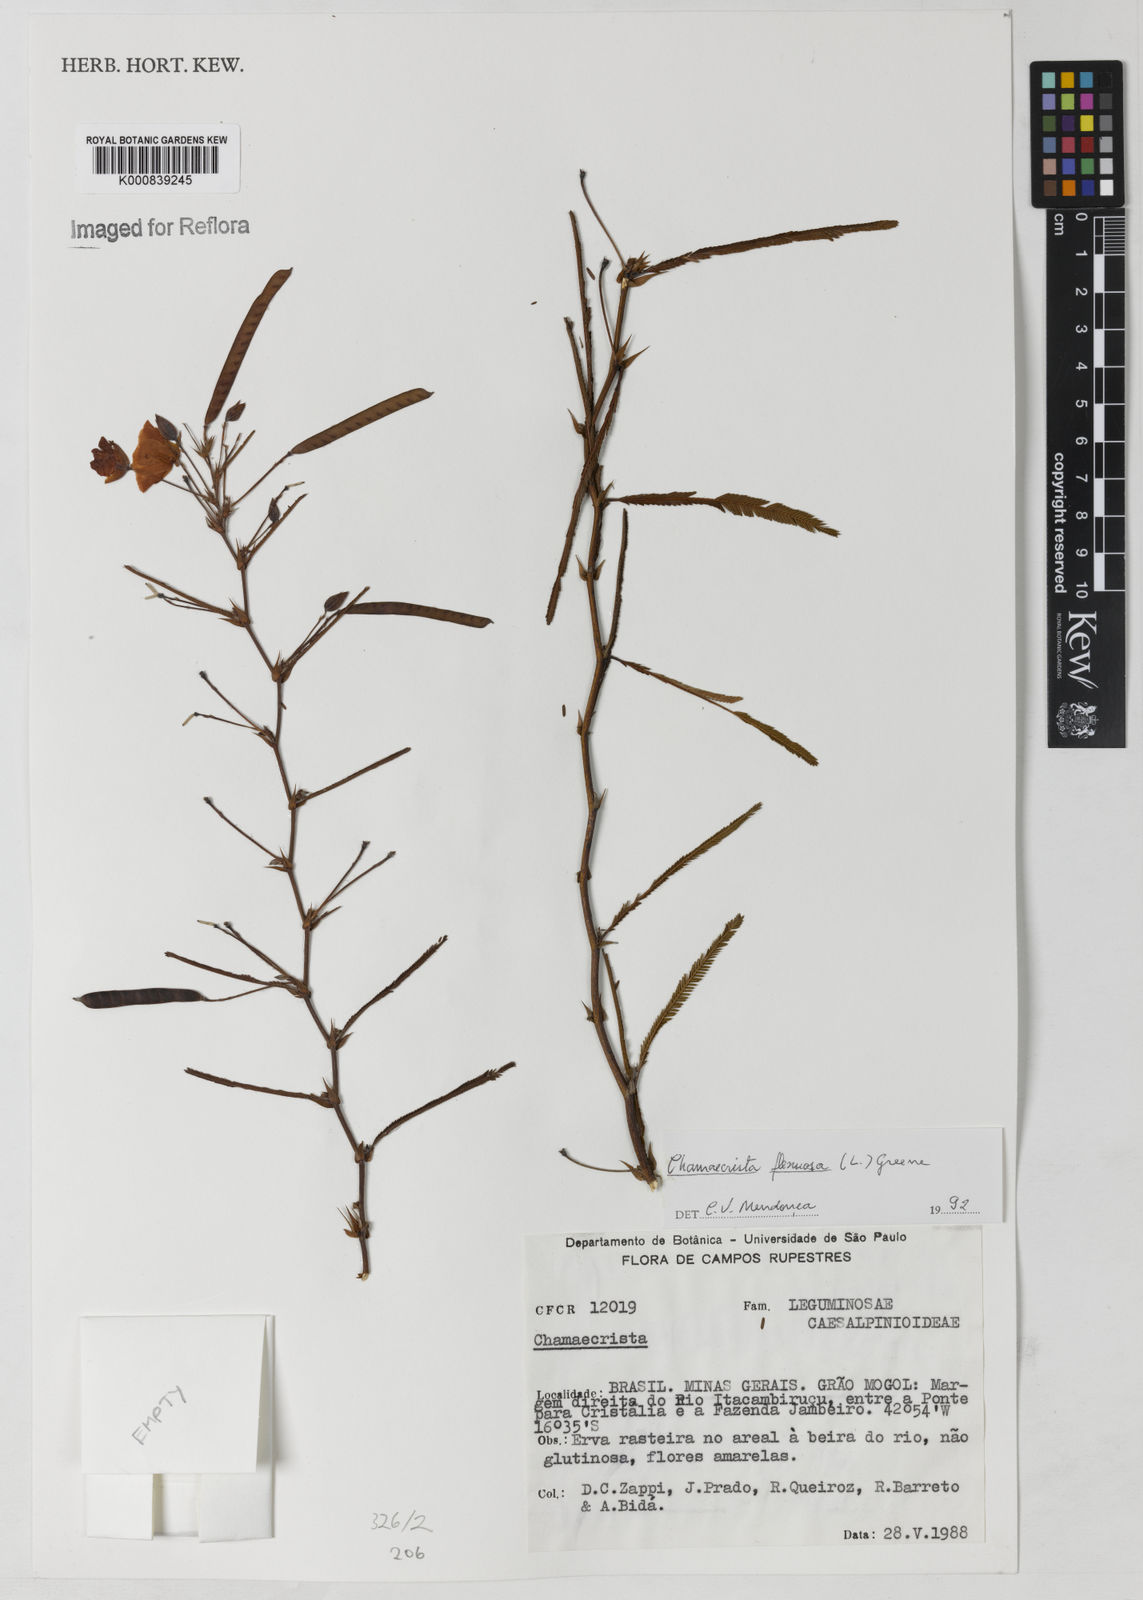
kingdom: Plantae
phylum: Tracheophyta
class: Magnoliopsida
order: Fabales
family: Fabaceae
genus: Chamaecrista
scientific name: Chamaecrista flexuosa
